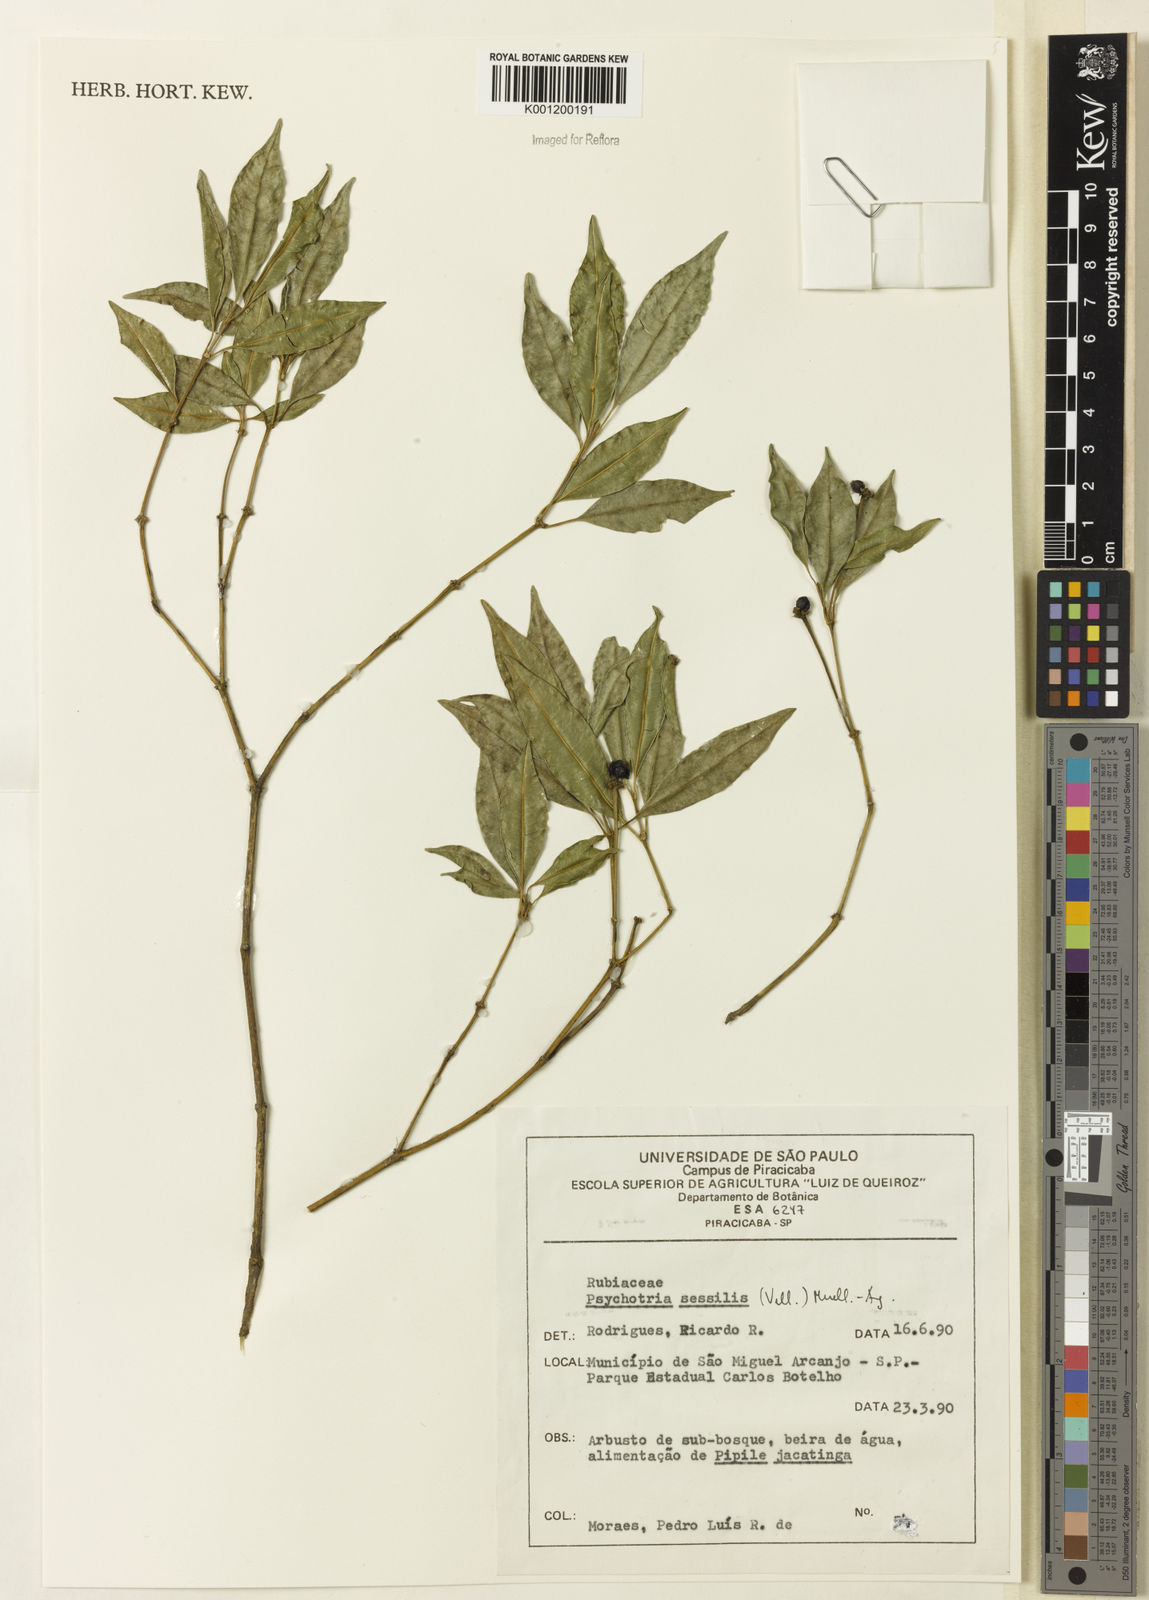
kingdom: Plantae
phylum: Tracheophyta
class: Magnoliopsida
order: Gentianales
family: Rubiaceae
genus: Rudgea
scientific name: Rudgea sessilis
